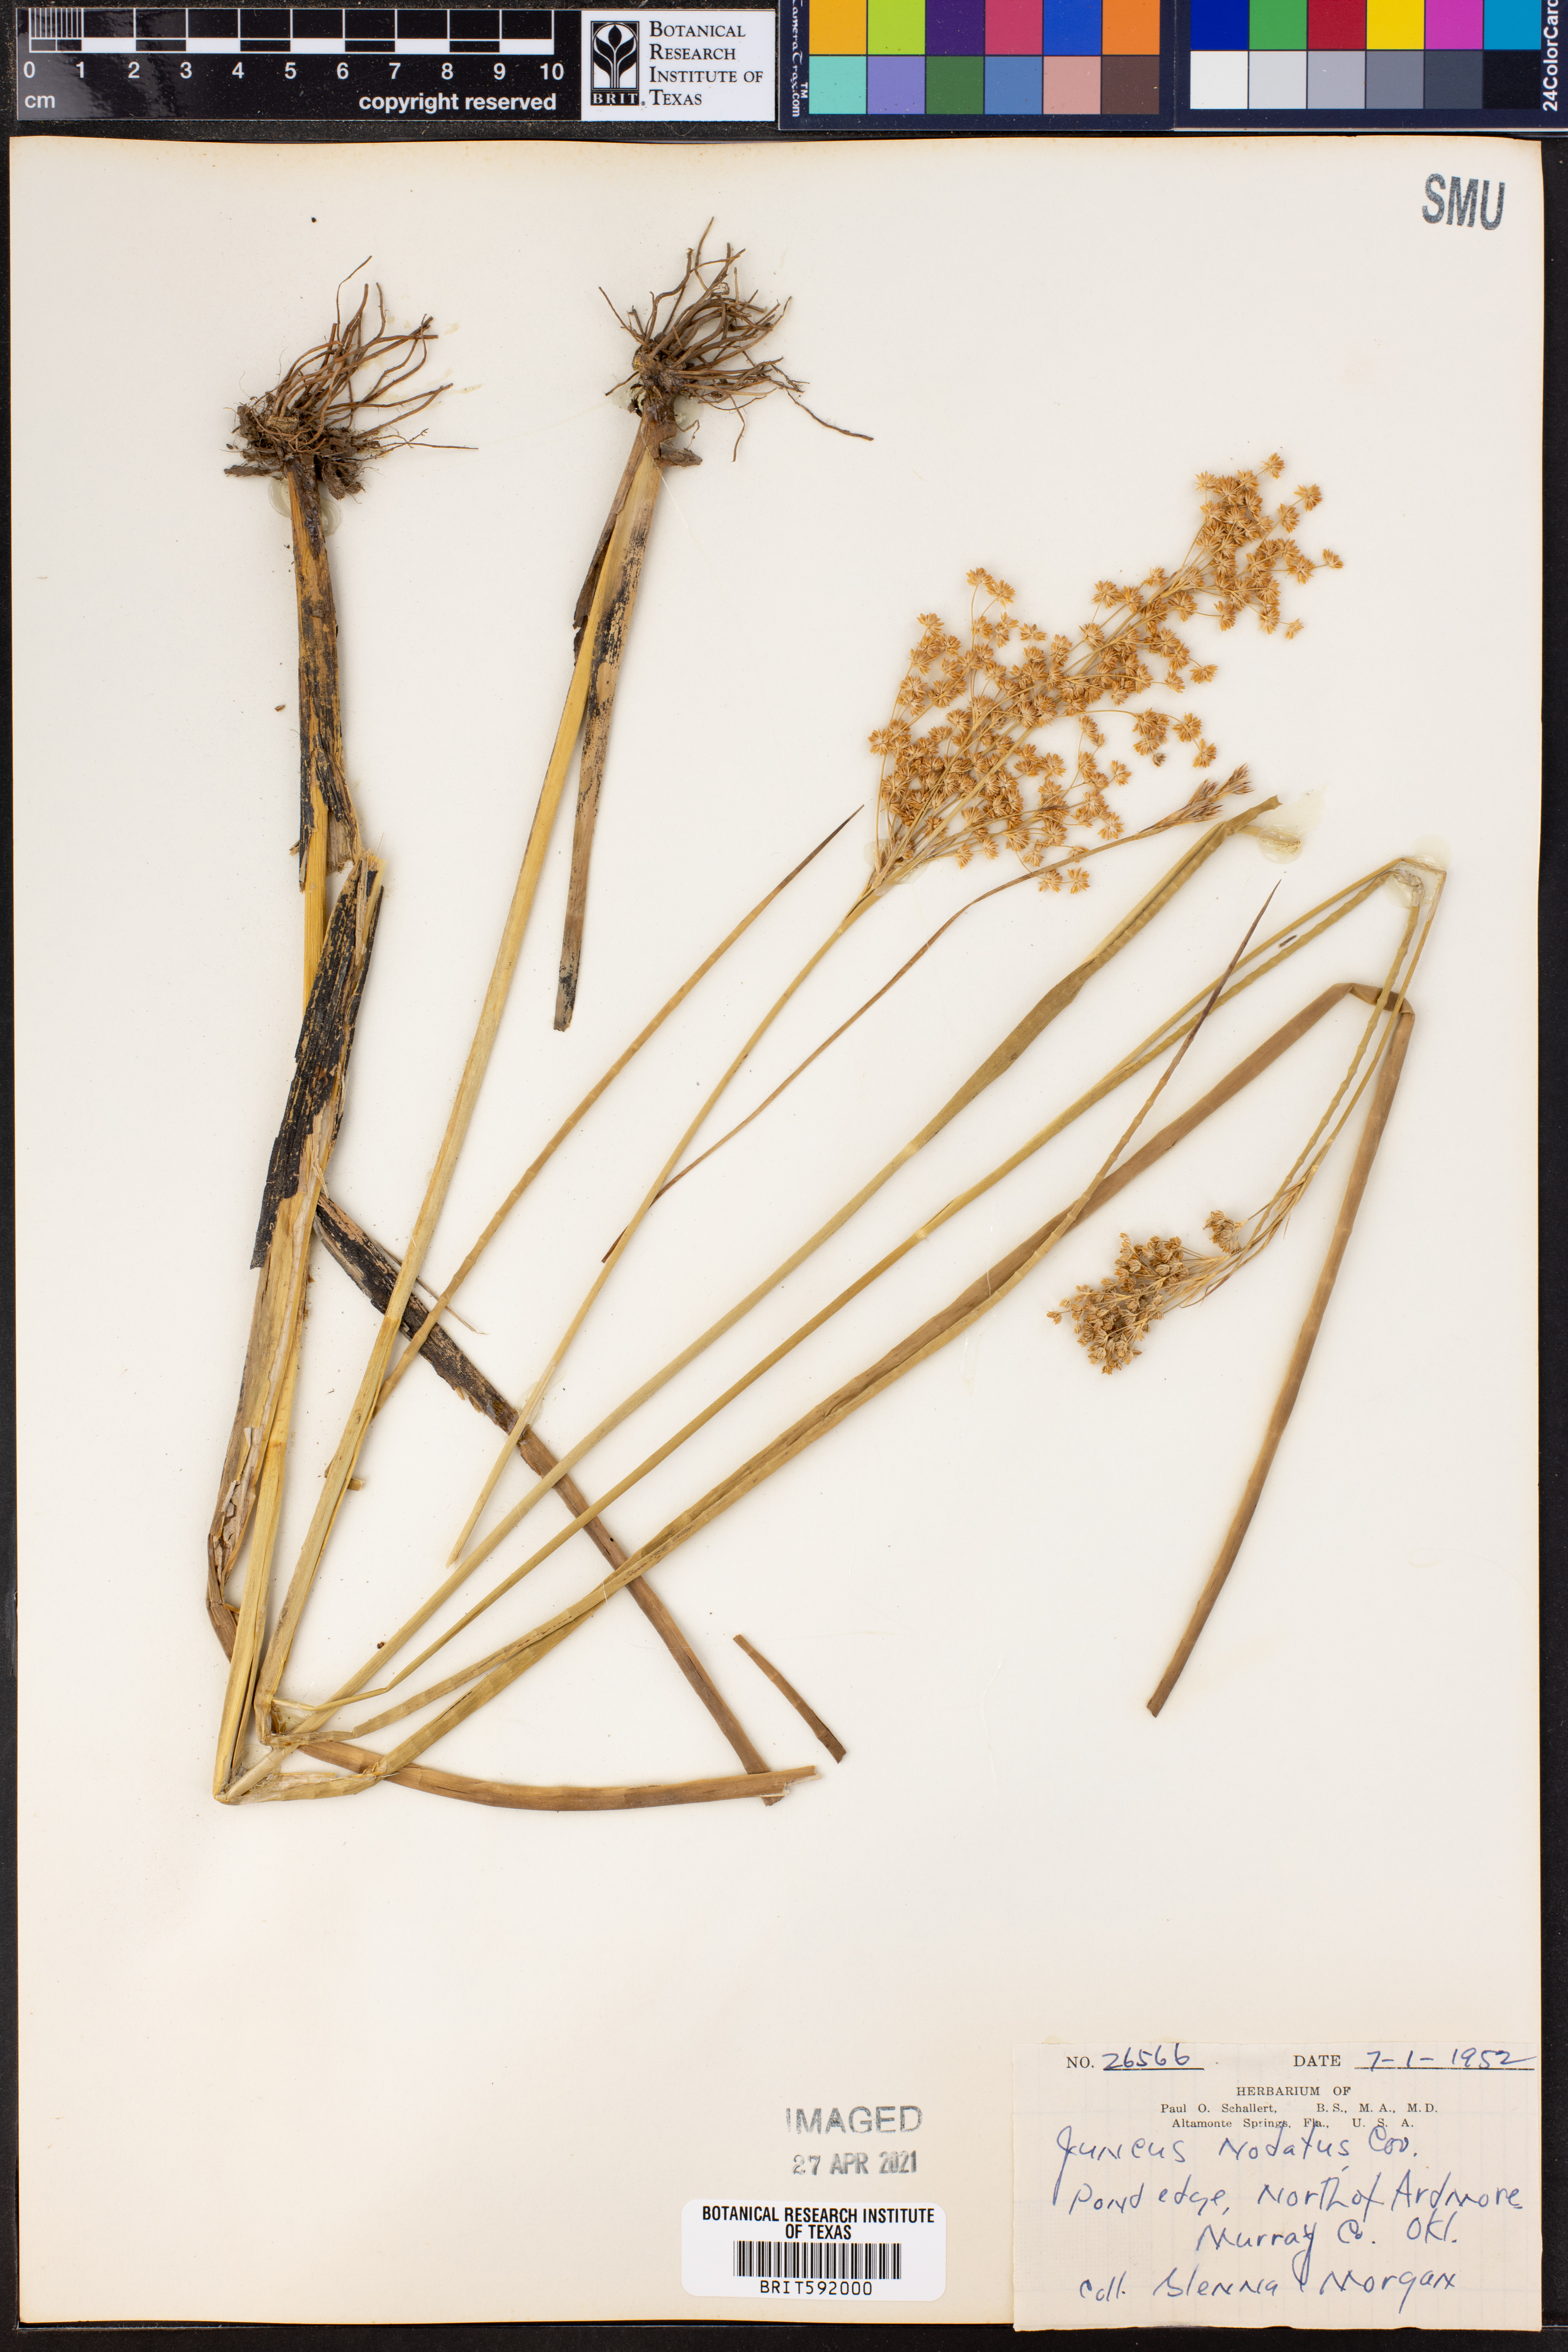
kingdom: Plantae
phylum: Tracheophyta
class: Liliopsida
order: Poales
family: Juncaceae
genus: Juncus
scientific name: Juncus nodatus
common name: Stout rush
